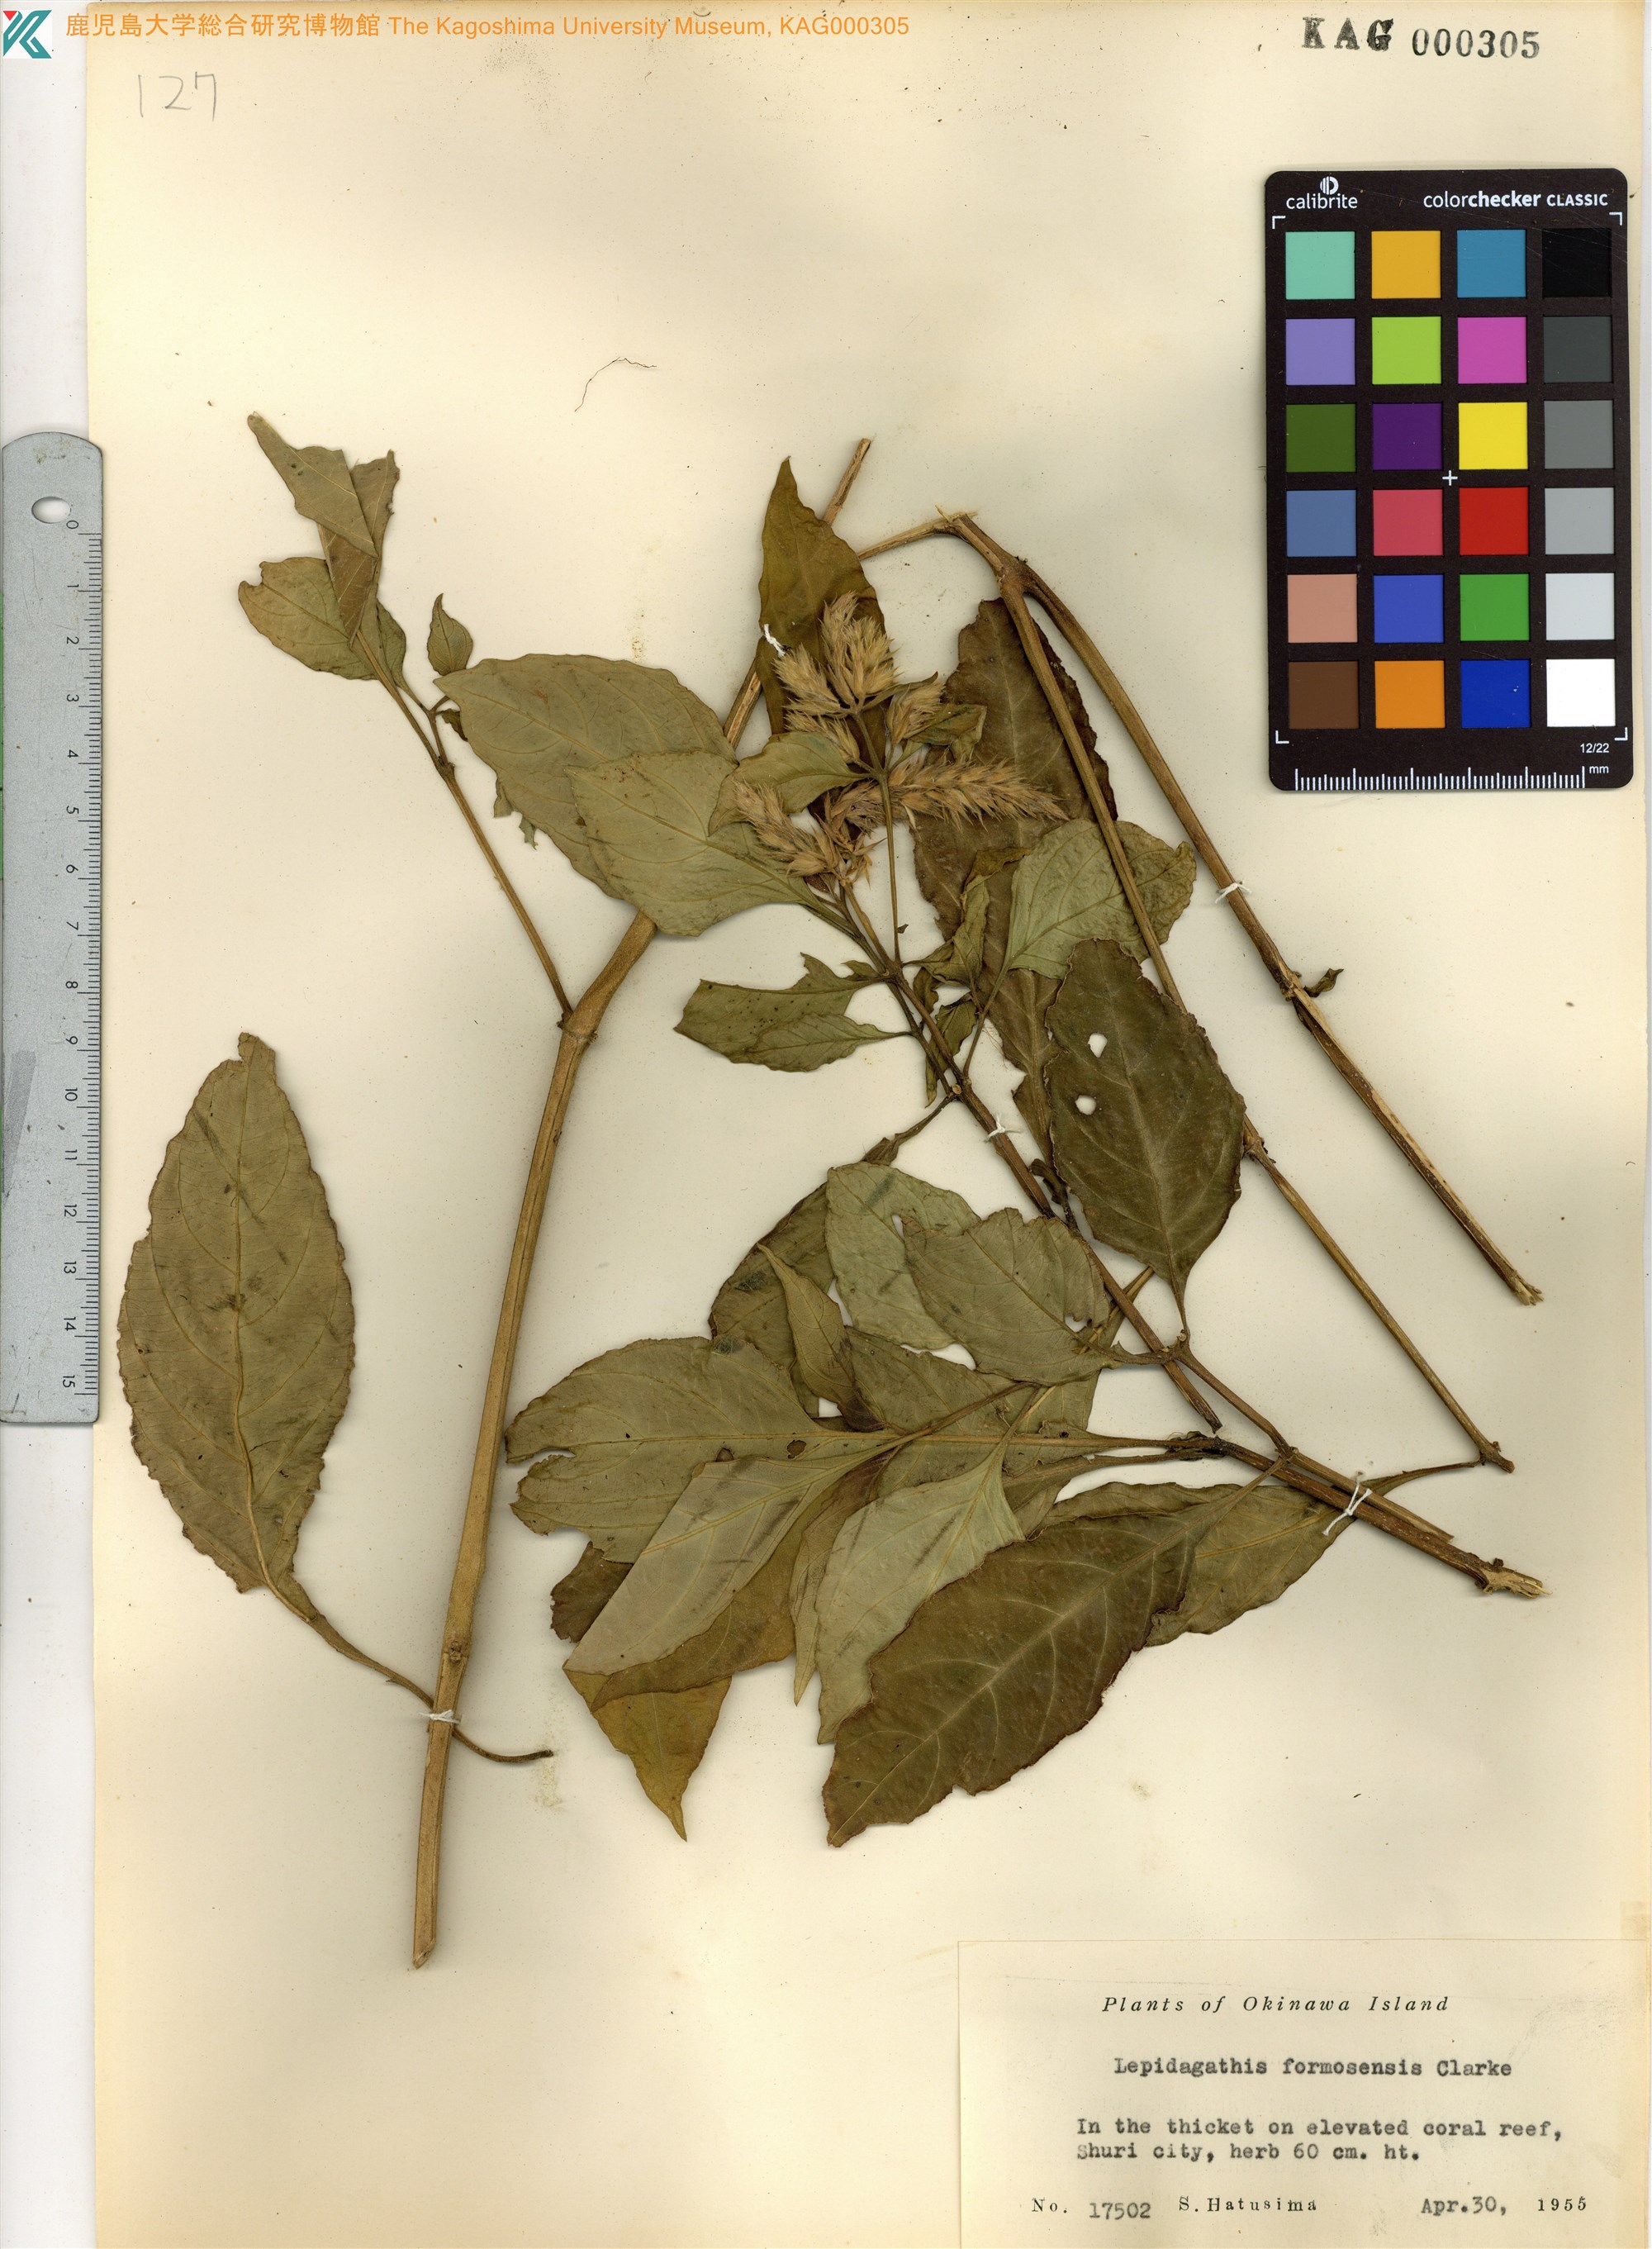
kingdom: Plantae
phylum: Tracheophyta
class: Magnoliopsida
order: Lamiales
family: Acanthaceae
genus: Lepidagathis
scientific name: Lepidagathis formosensis
